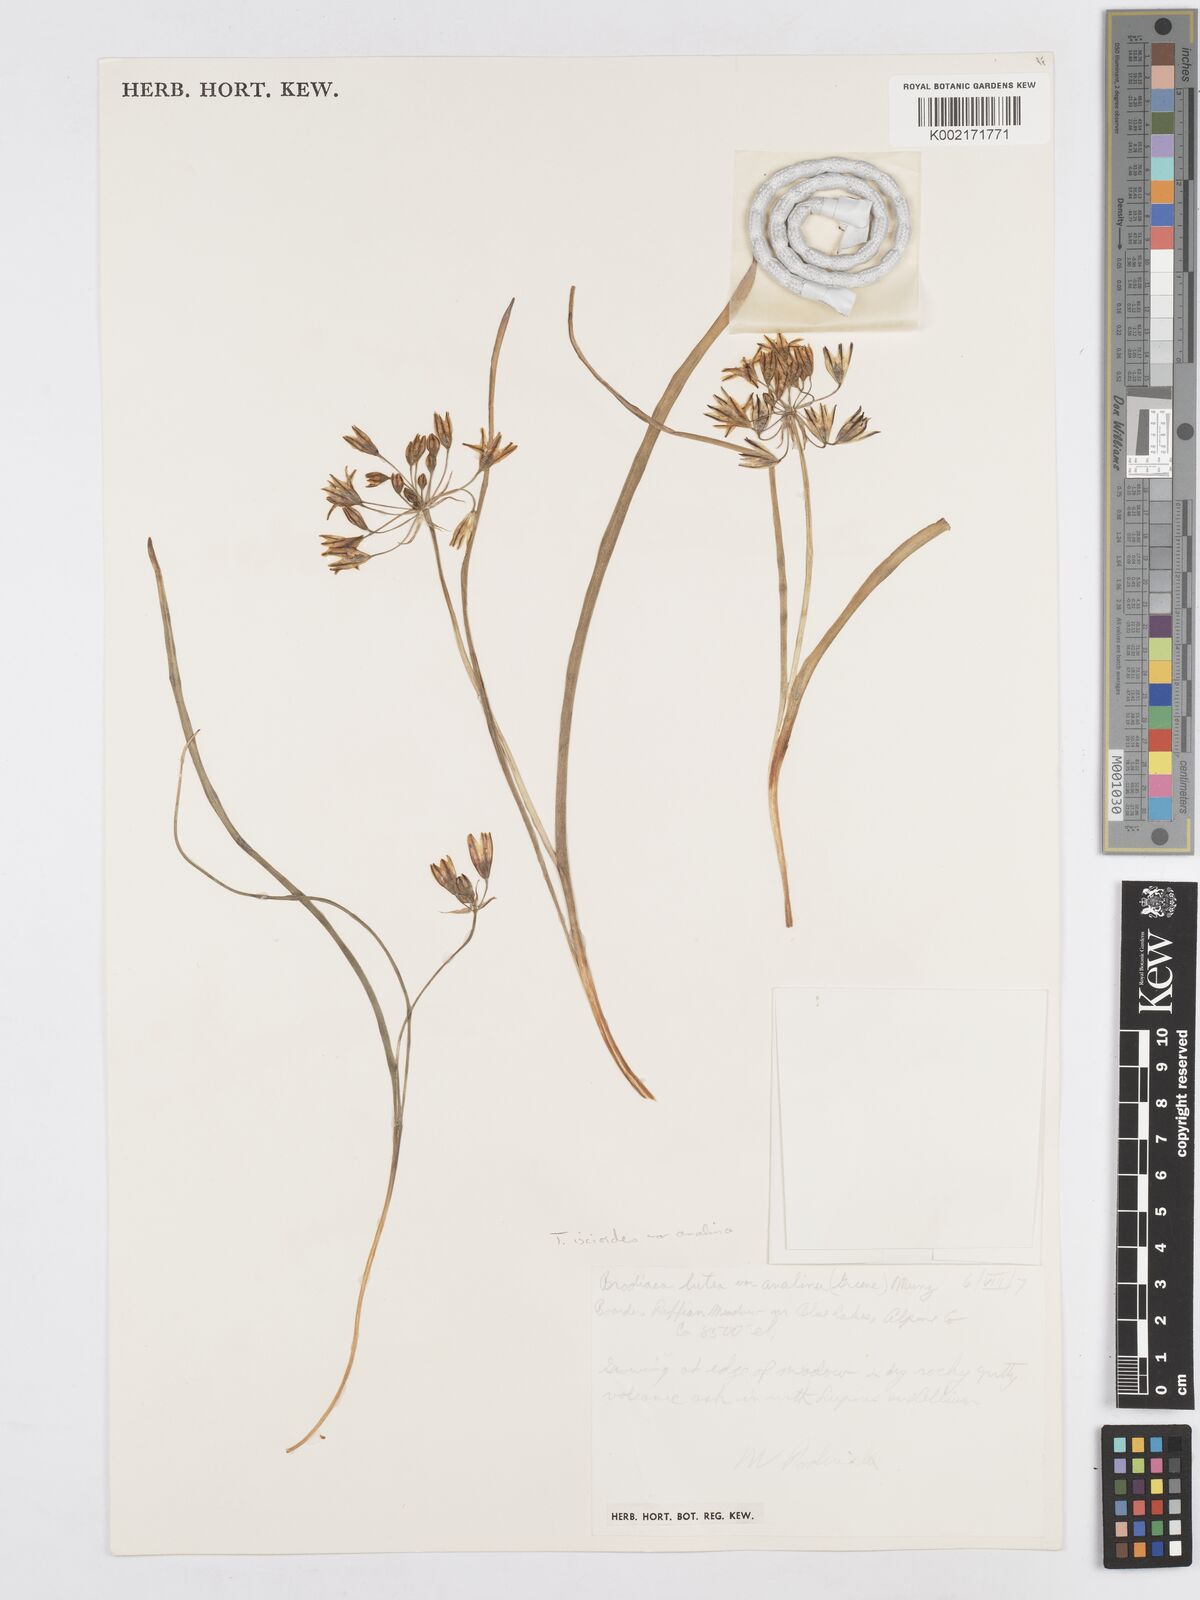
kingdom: Plantae
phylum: Tracheophyta
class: Liliopsida
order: Asparagales
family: Asparagaceae
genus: Triteleia
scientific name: Triteleia ixioides
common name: Yellow-brodiaea
